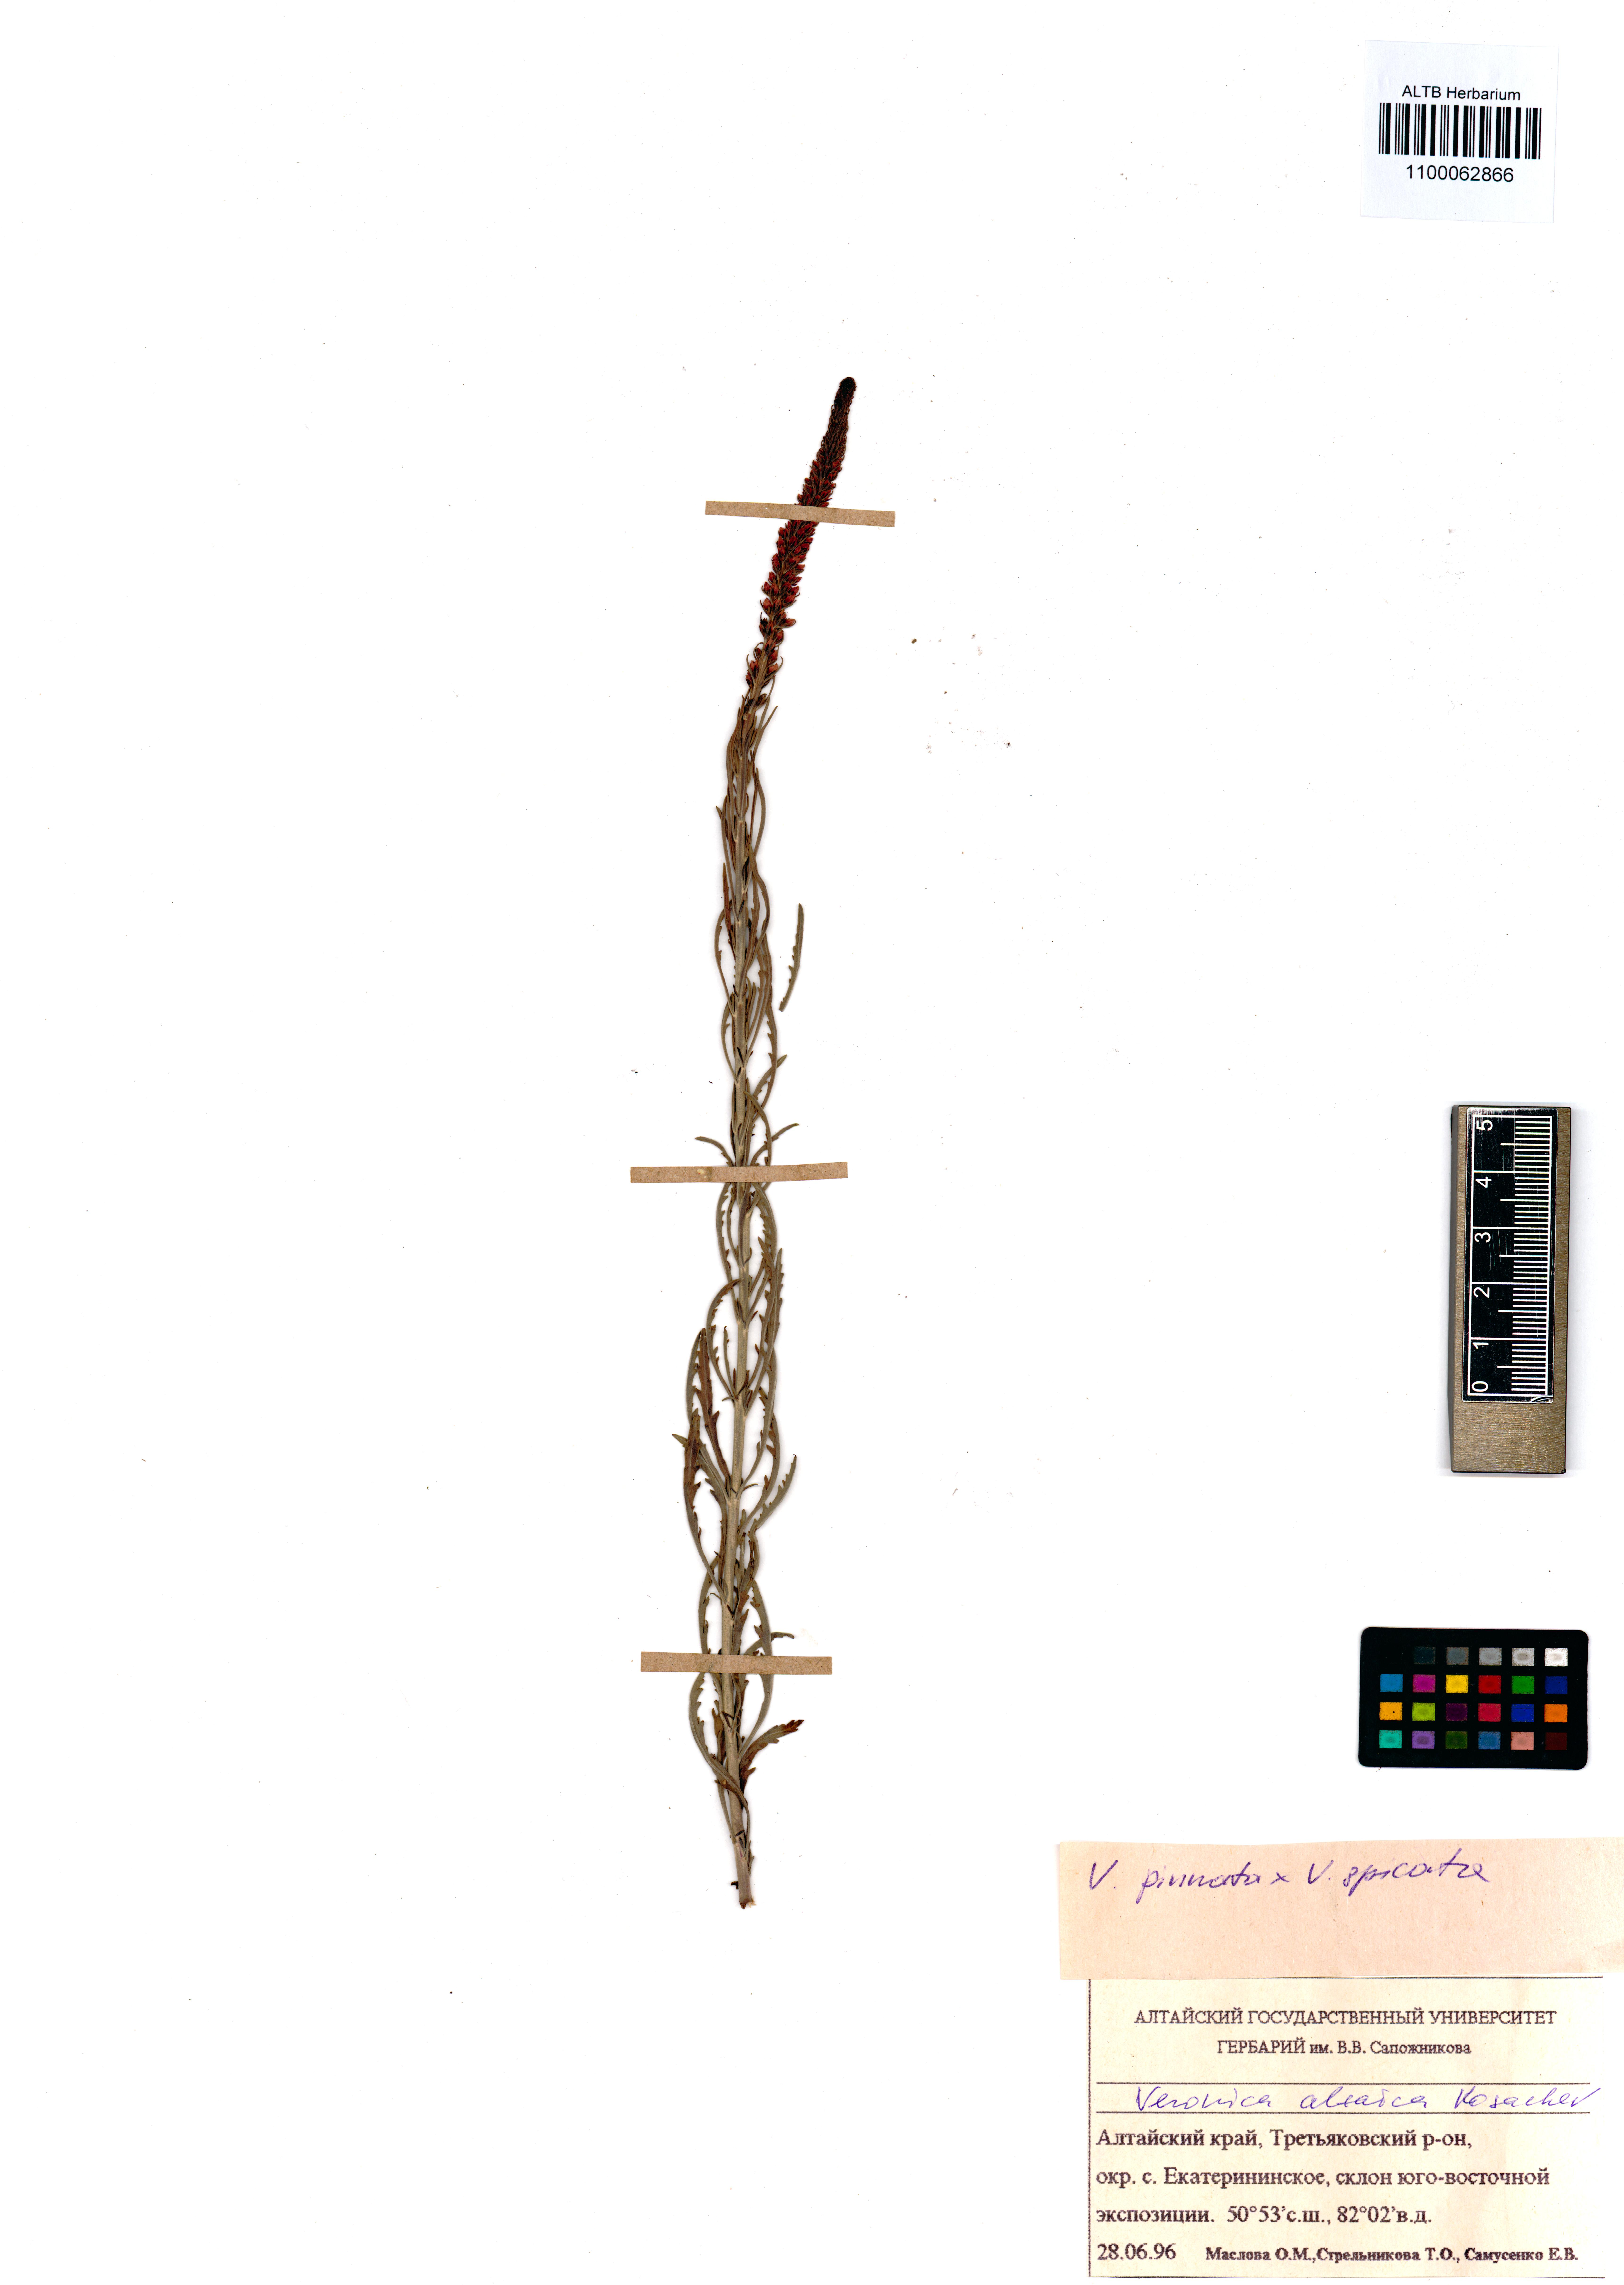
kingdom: Plantae
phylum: Tracheophyta
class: Magnoliopsida
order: Lamiales
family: Plantaginaceae
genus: Veronica
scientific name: Veronica altaica
